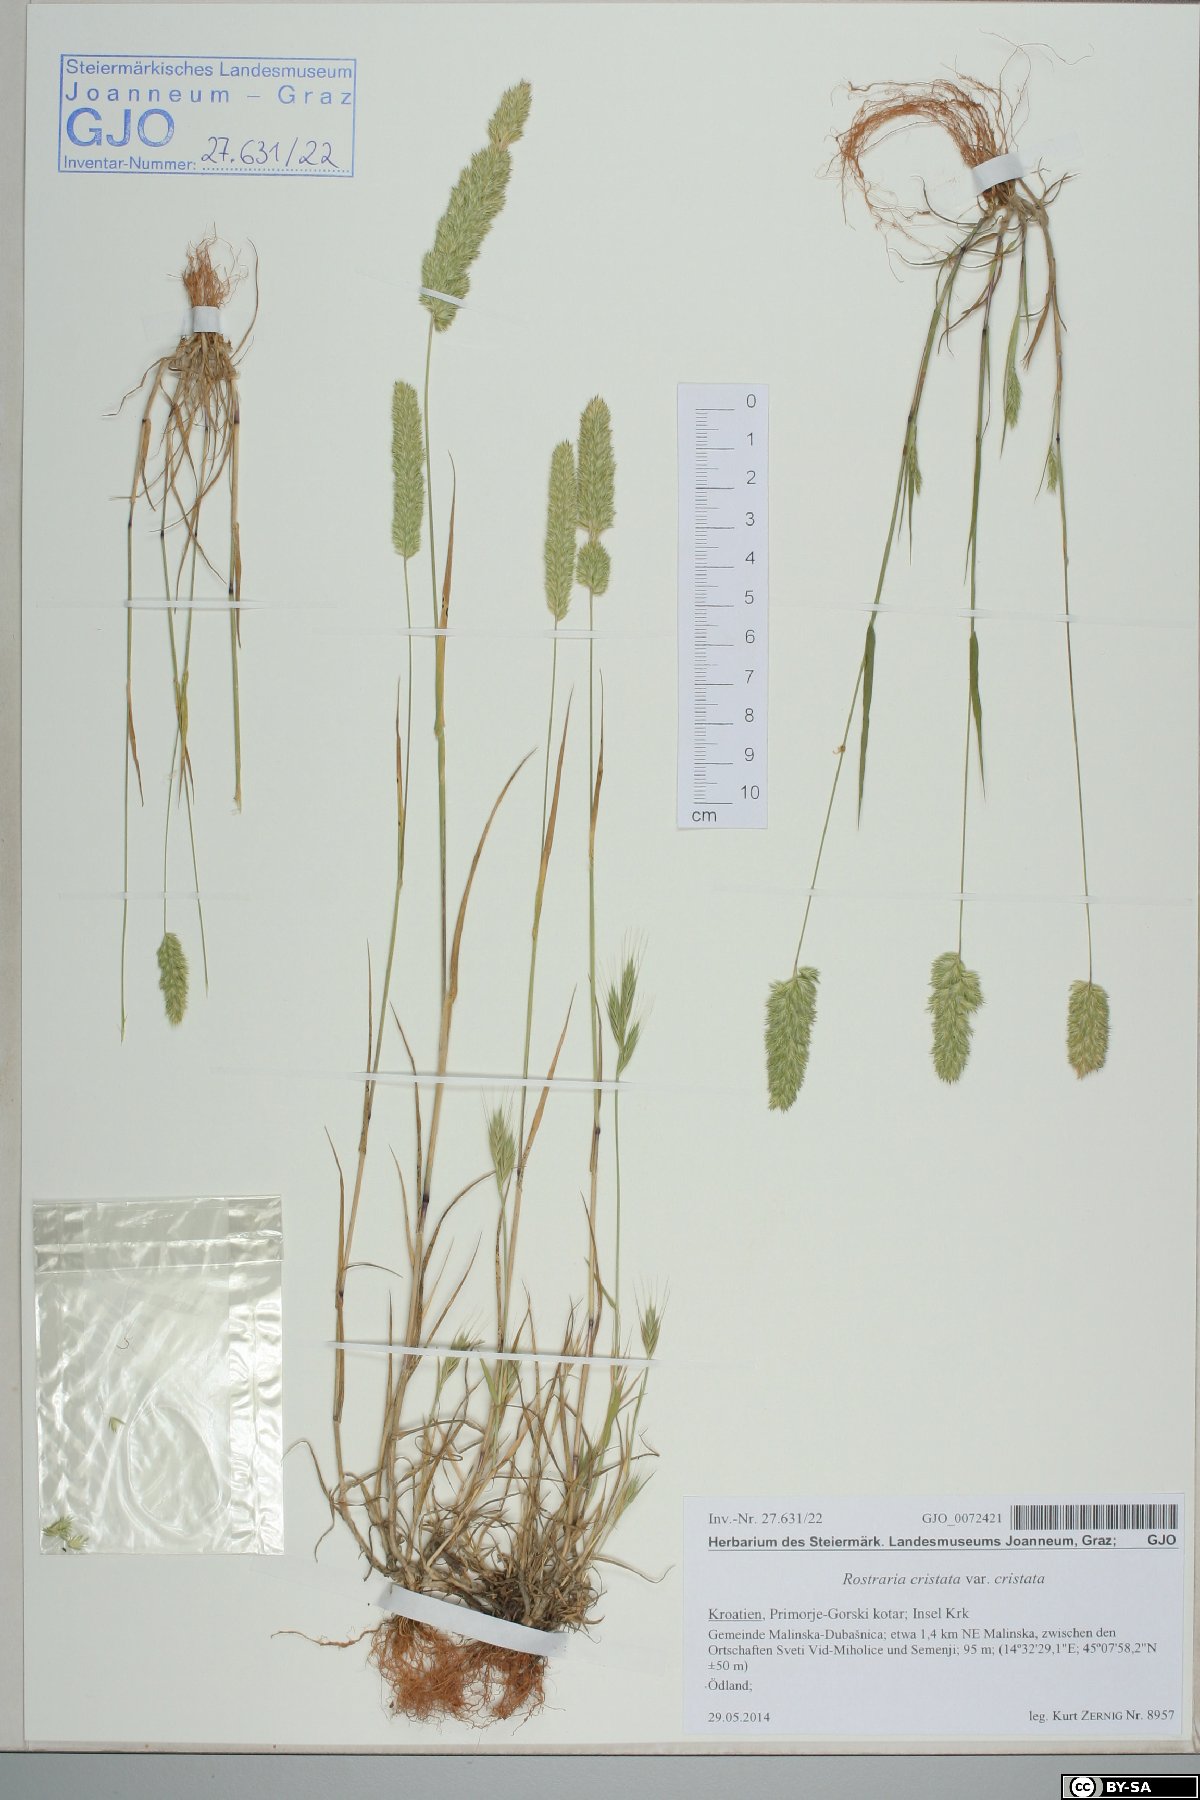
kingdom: Plantae
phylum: Tracheophyta
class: Liliopsida
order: Poales
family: Poaceae
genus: Rostraria
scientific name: Rostraria cristata
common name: Mediterranean hair-grass
